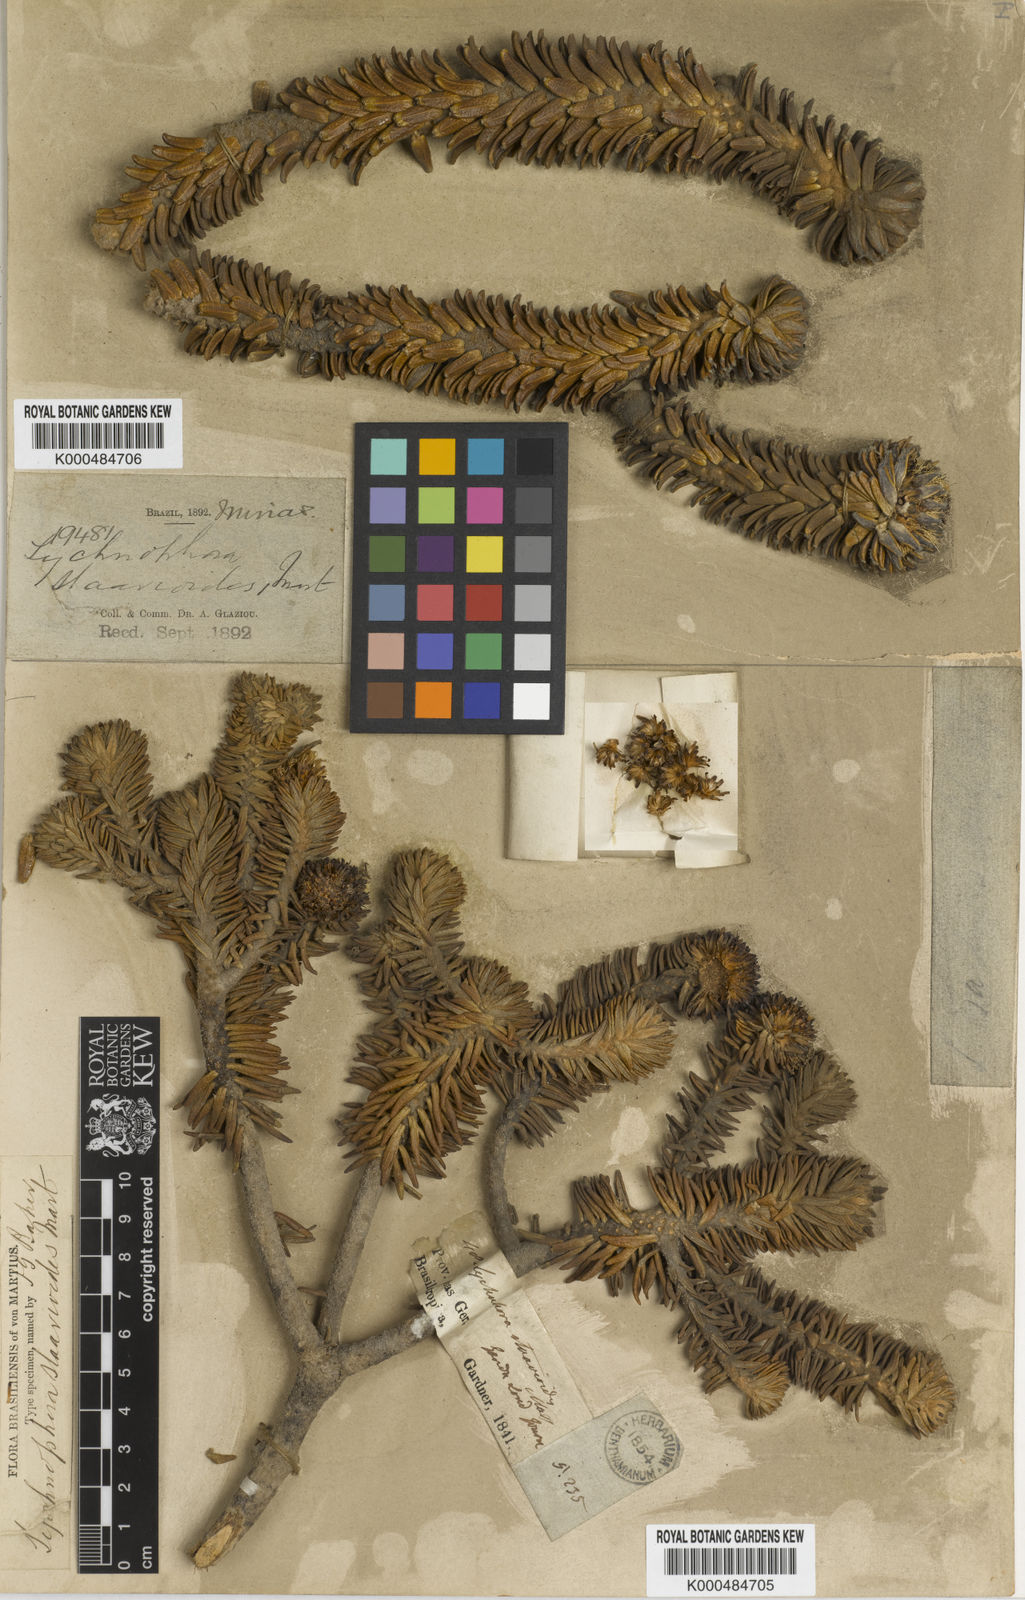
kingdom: Plantae
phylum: Tracheophyta
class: Magnoliopsida
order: Asterales
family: Asteraceae
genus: Lychnophora
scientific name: Lychnophora staavioides
